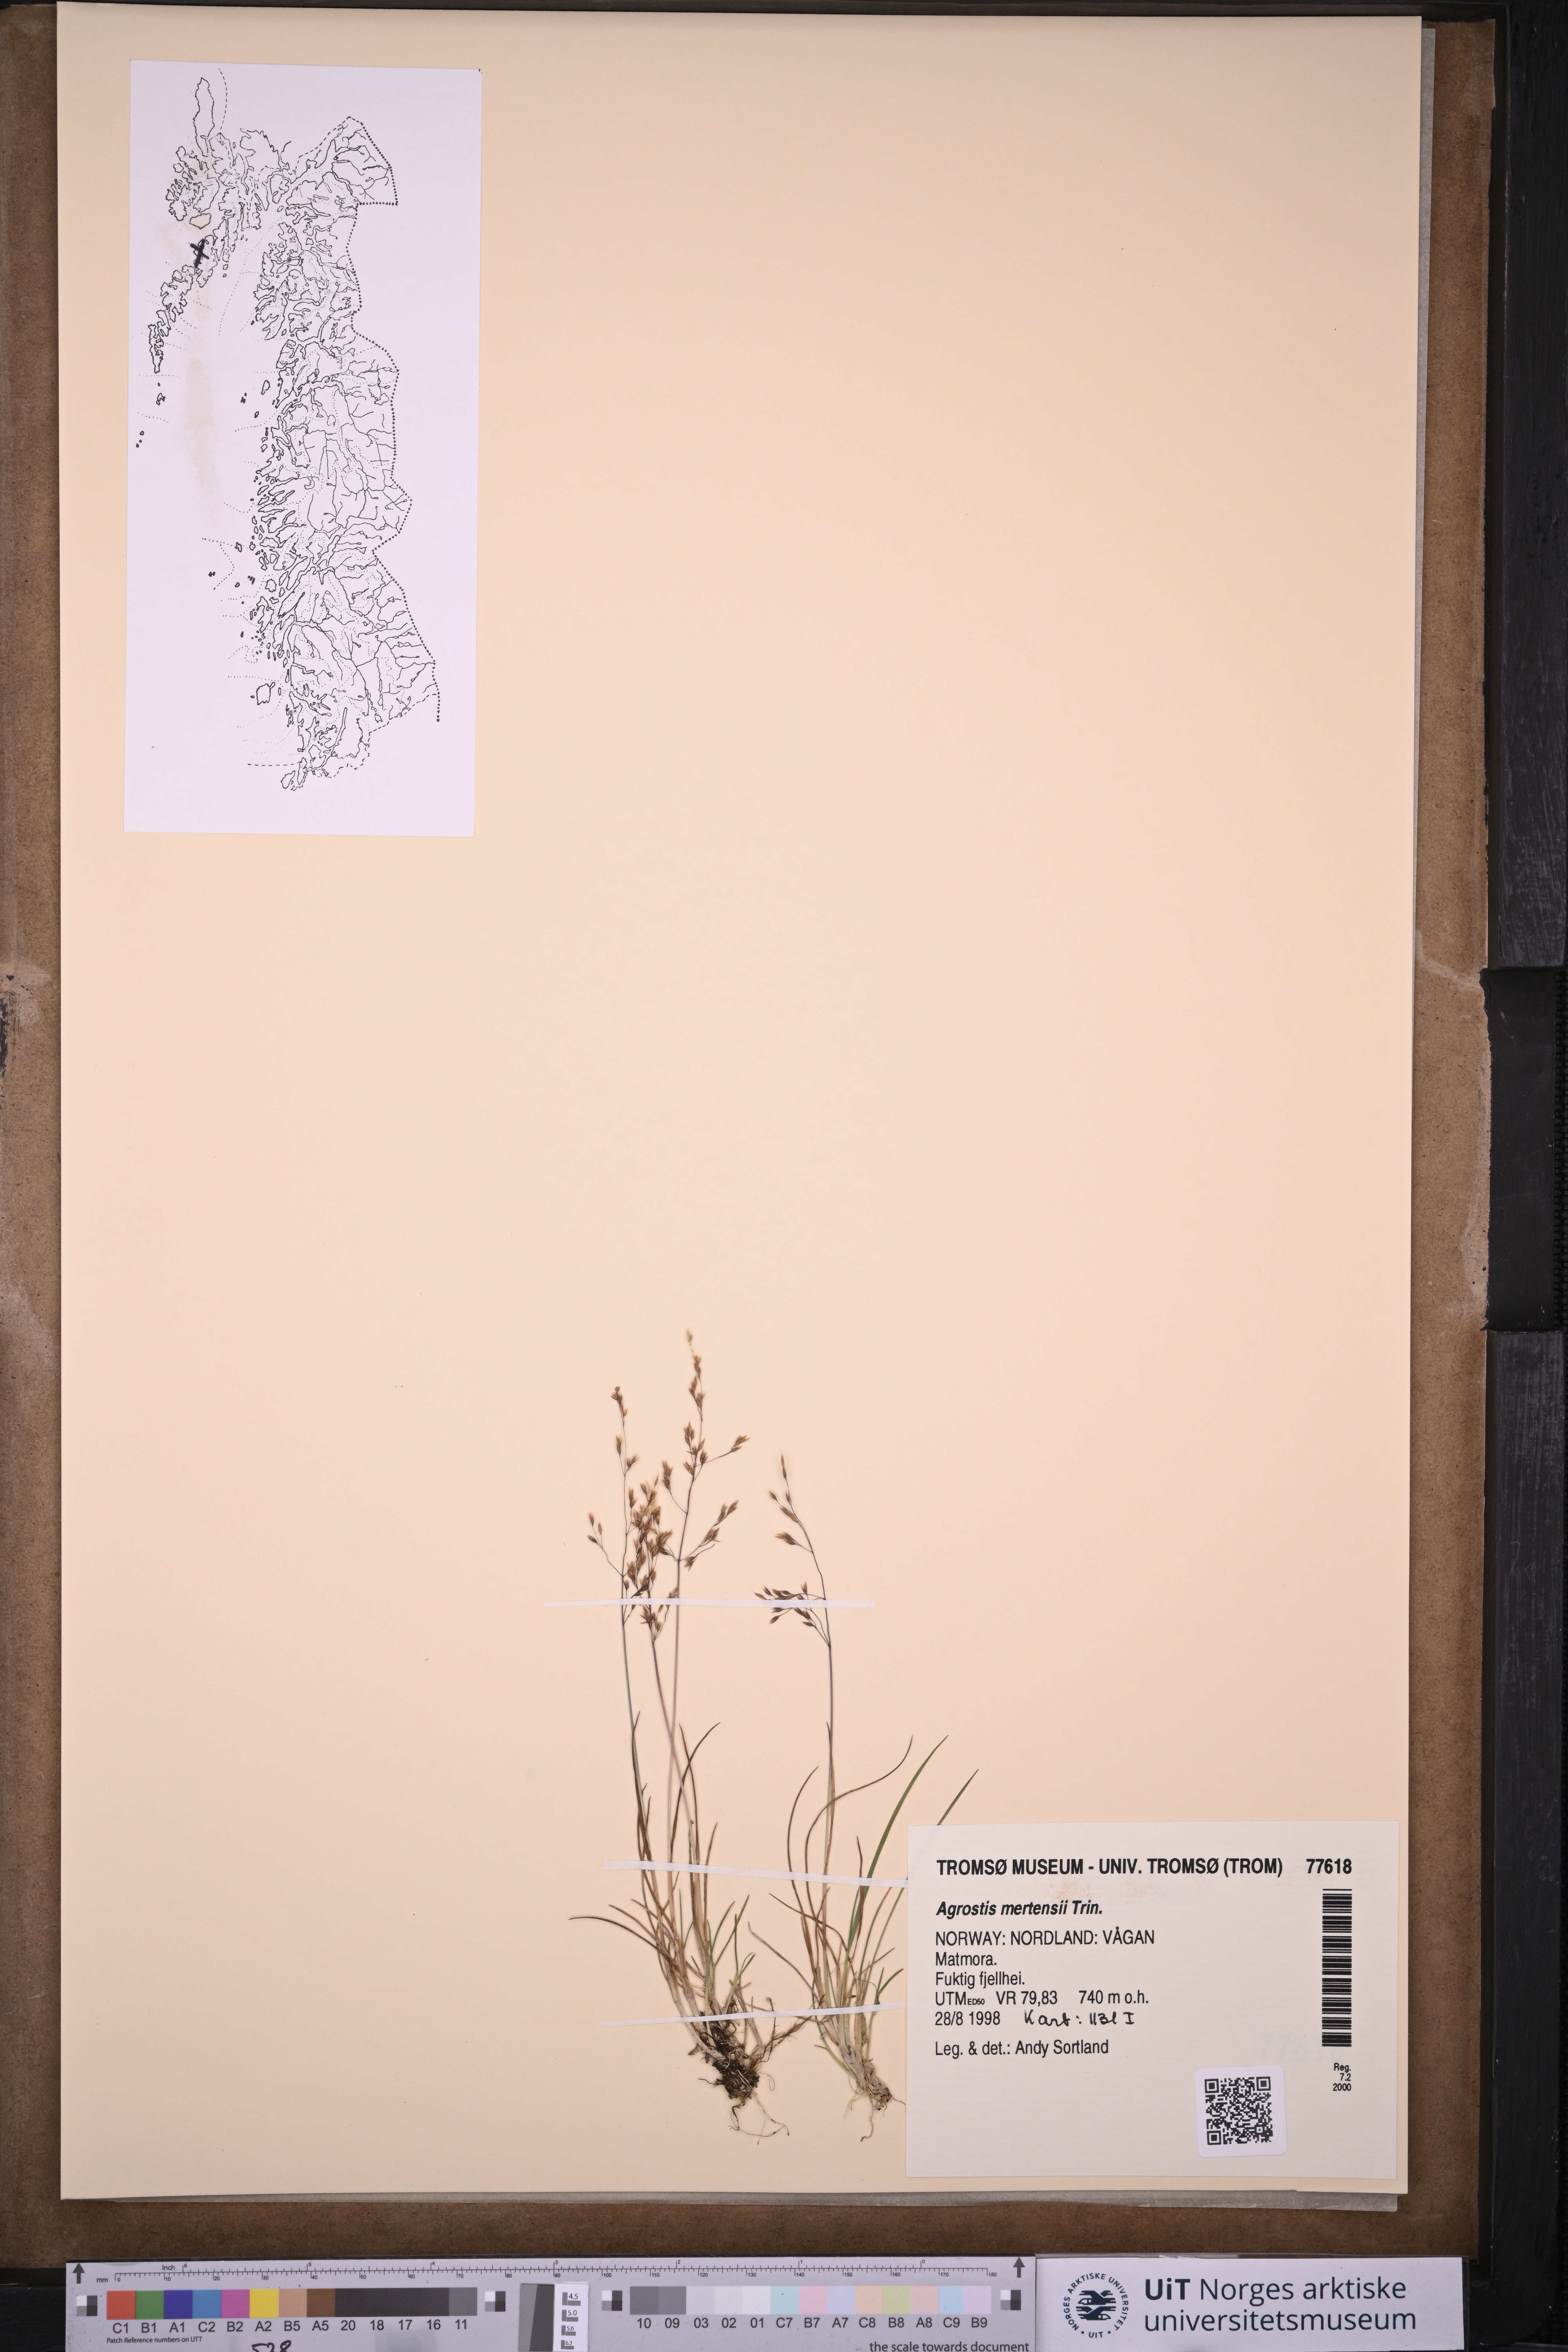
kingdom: Plantae
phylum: Tracheophyta
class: Liliopsida
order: Poales
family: Poaceae
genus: Agrostis
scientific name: Agrostis mertensii
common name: Northern bent
